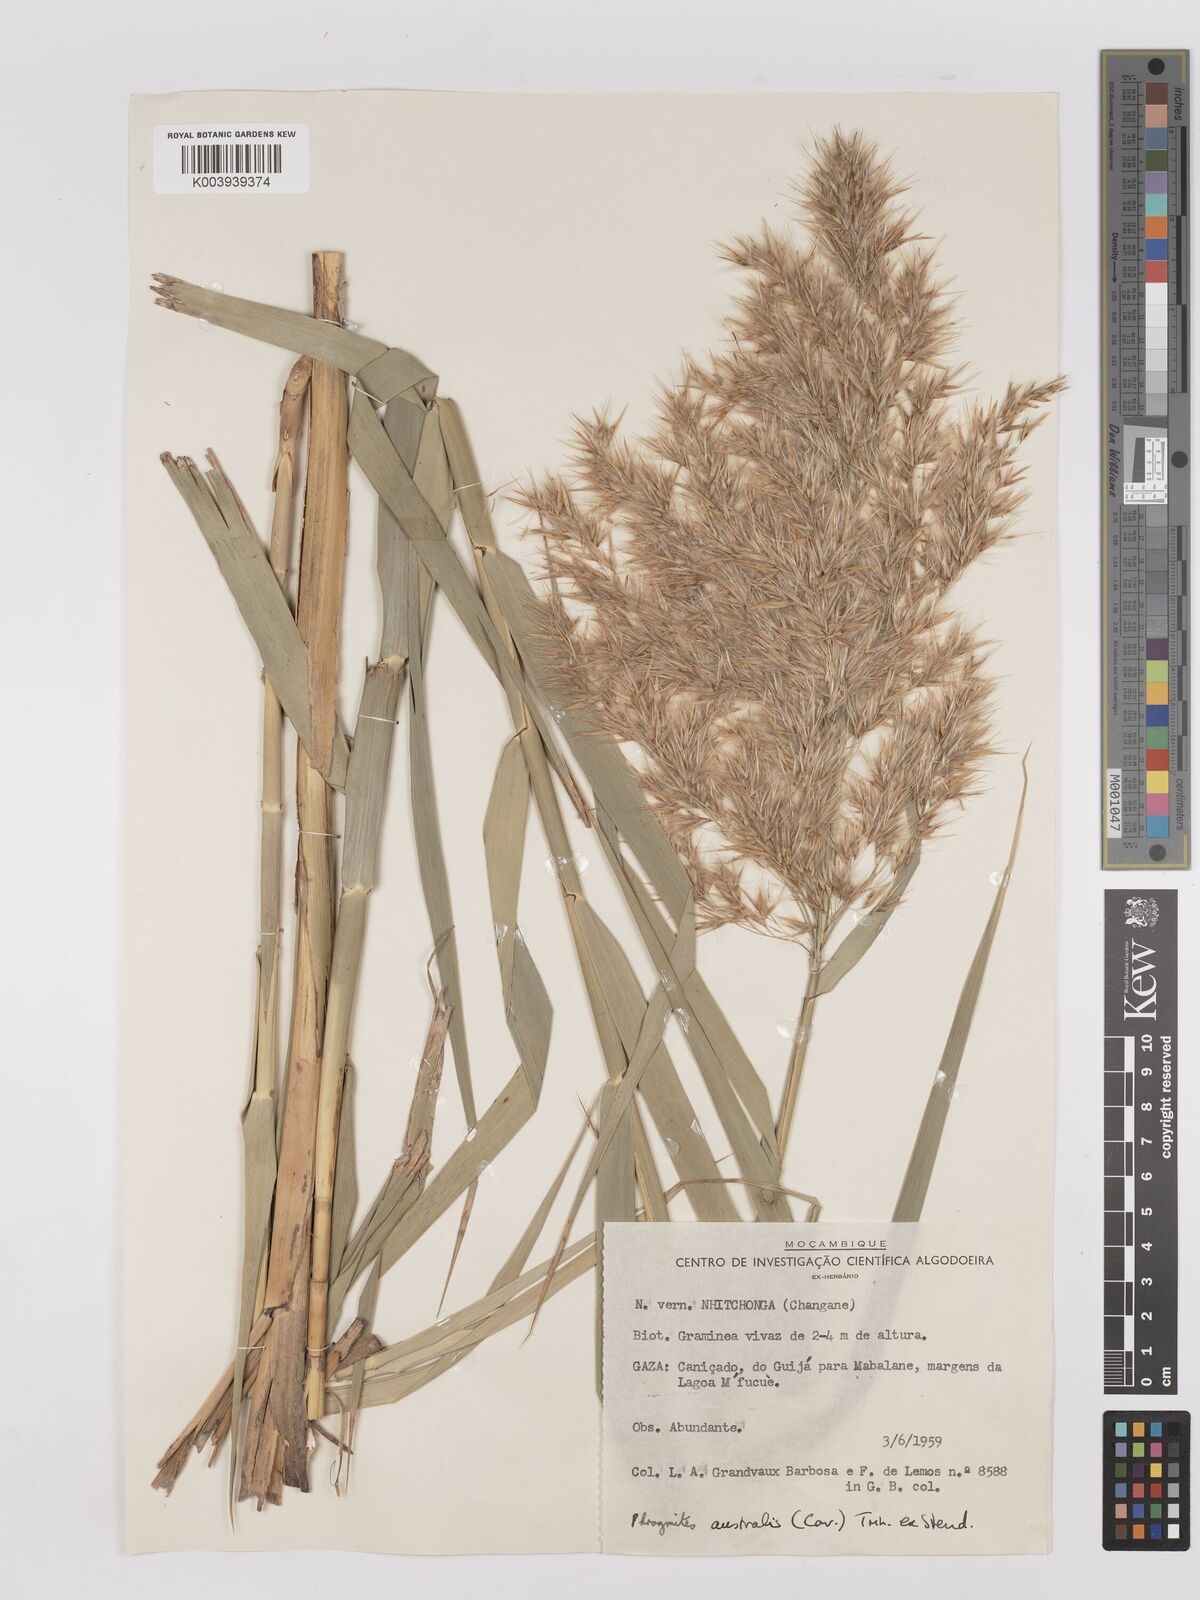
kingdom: Plantae
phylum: Tracheophyta
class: Liliopsida
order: Poales
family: Poaceae
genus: Phragmites
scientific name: Phragmites australis
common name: Common reed
